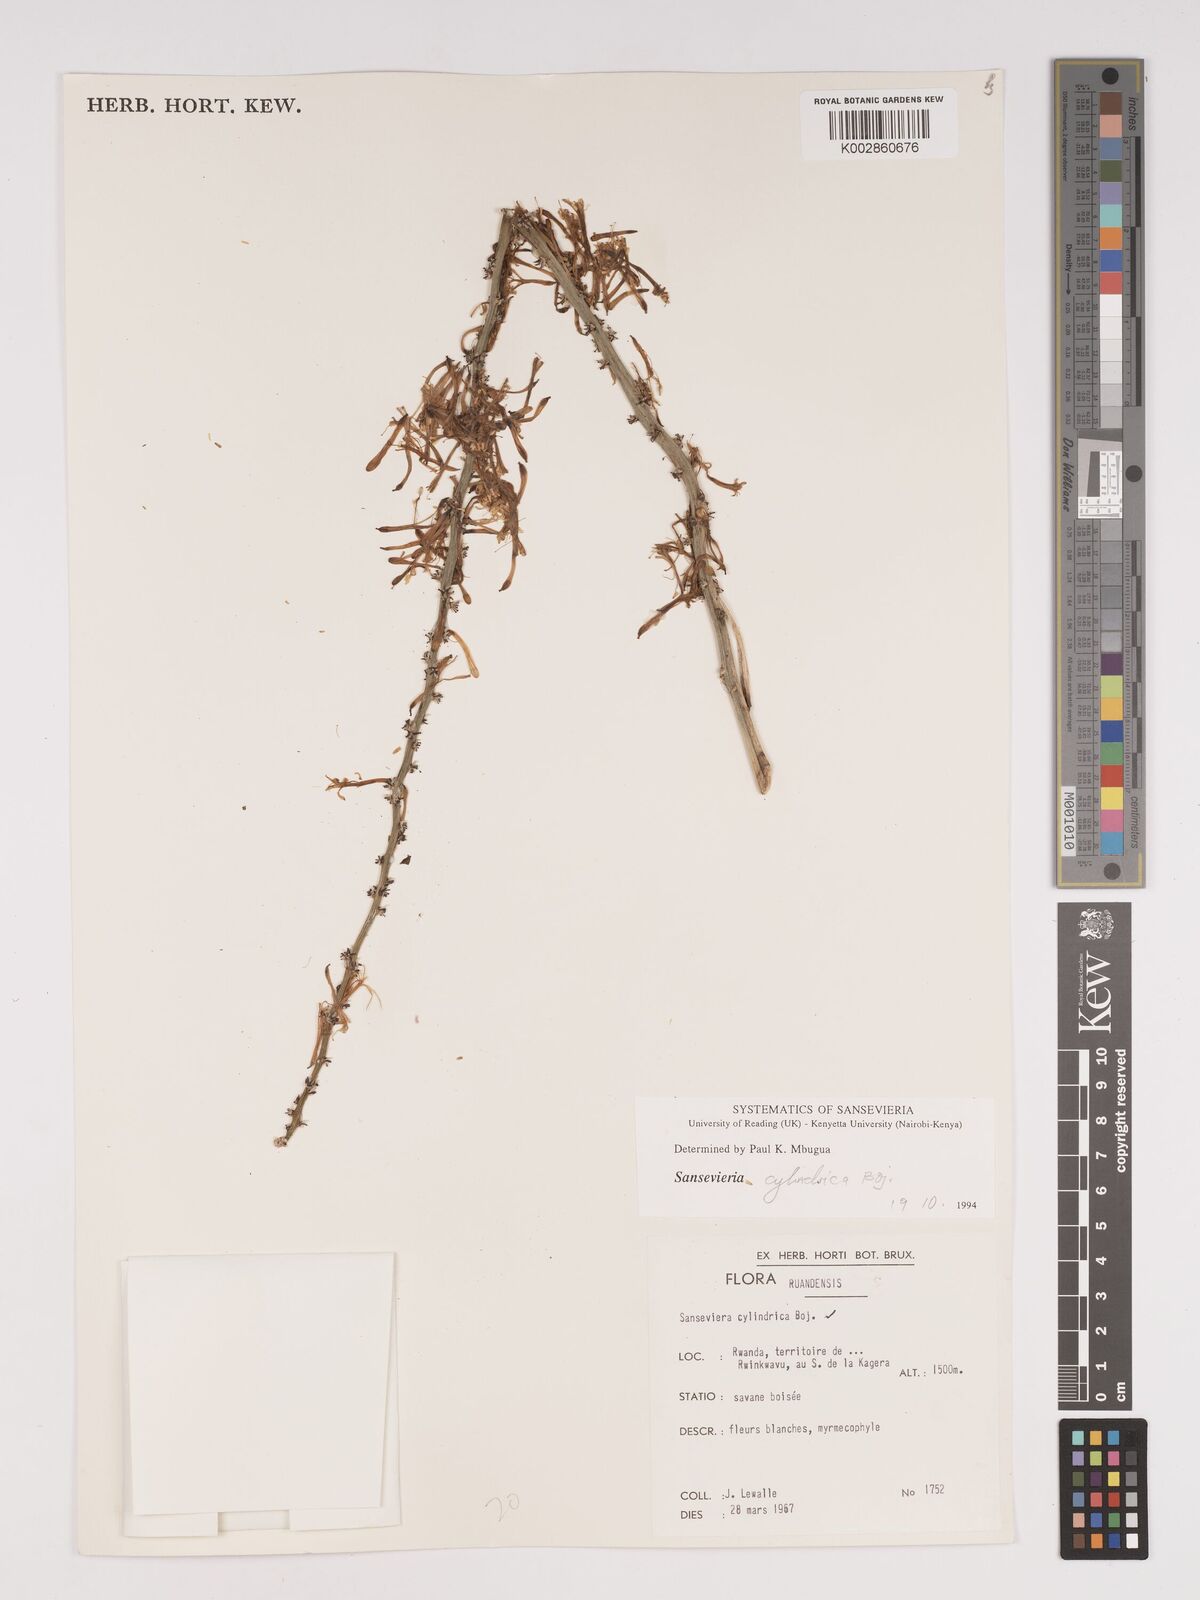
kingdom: Plantae
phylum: Tracheophyta
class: Liliopsida
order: Asparagales
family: Asparagaceae
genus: Dracaena
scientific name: Dracaena bicolor
